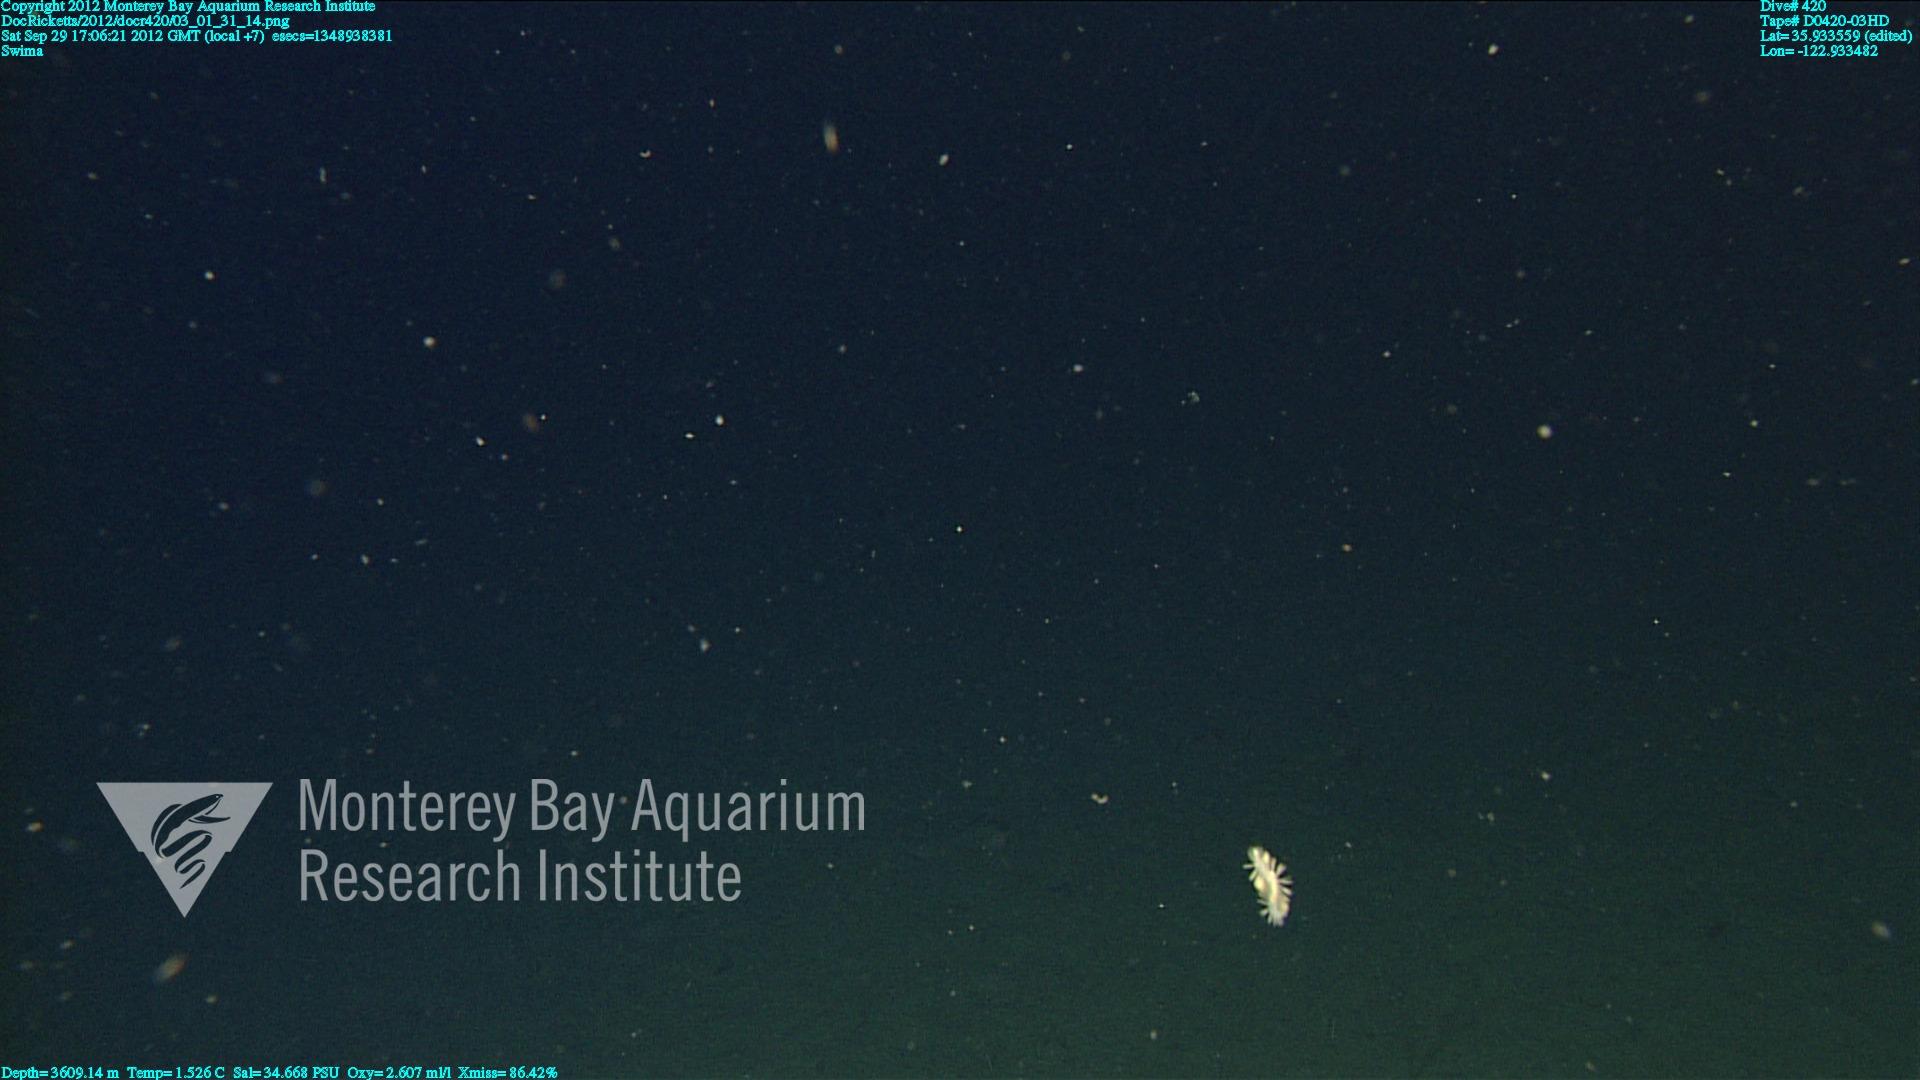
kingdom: Animalia
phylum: Cnidaria
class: Anthozoa
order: Malacalcyonacea
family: Gorgoniidae
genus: Callistephanus
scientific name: Callistephanus simplex
